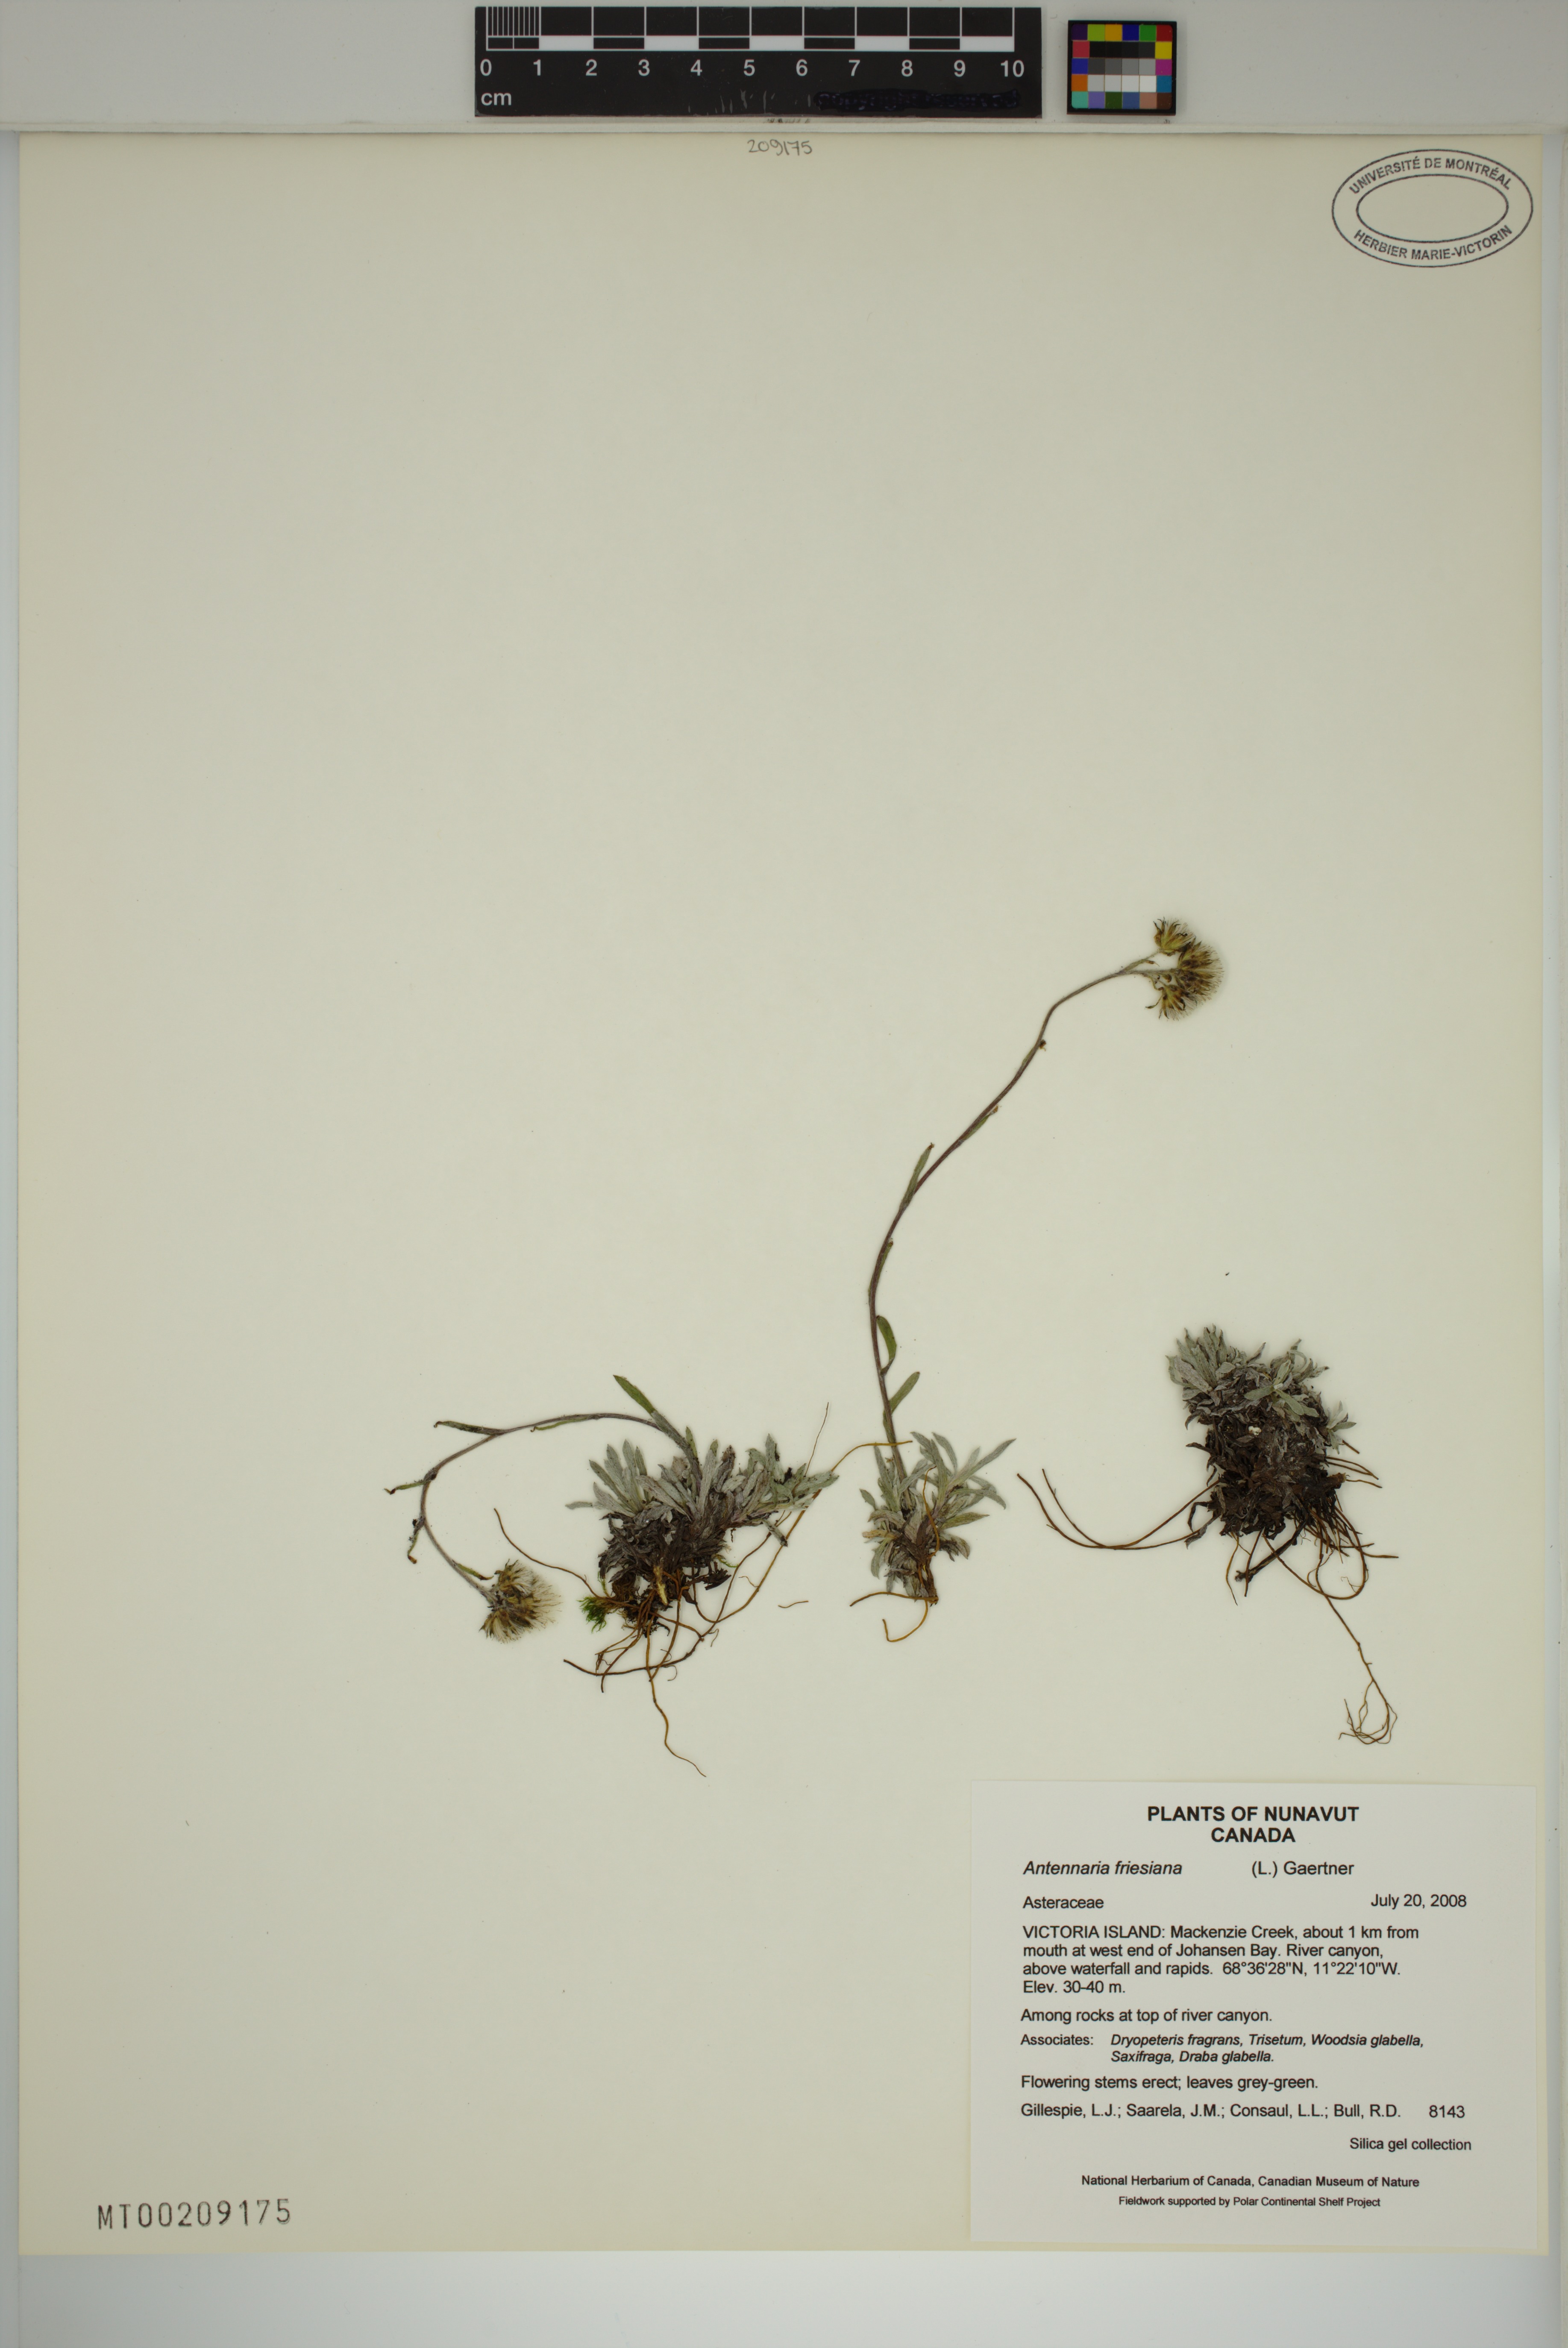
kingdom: Plantae
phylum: Tracheophyta
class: Magnoliopsida
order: Asterales
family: Asteraceae
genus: Antennaria
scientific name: Antennaria friesiana
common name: Fries' pussytoes
